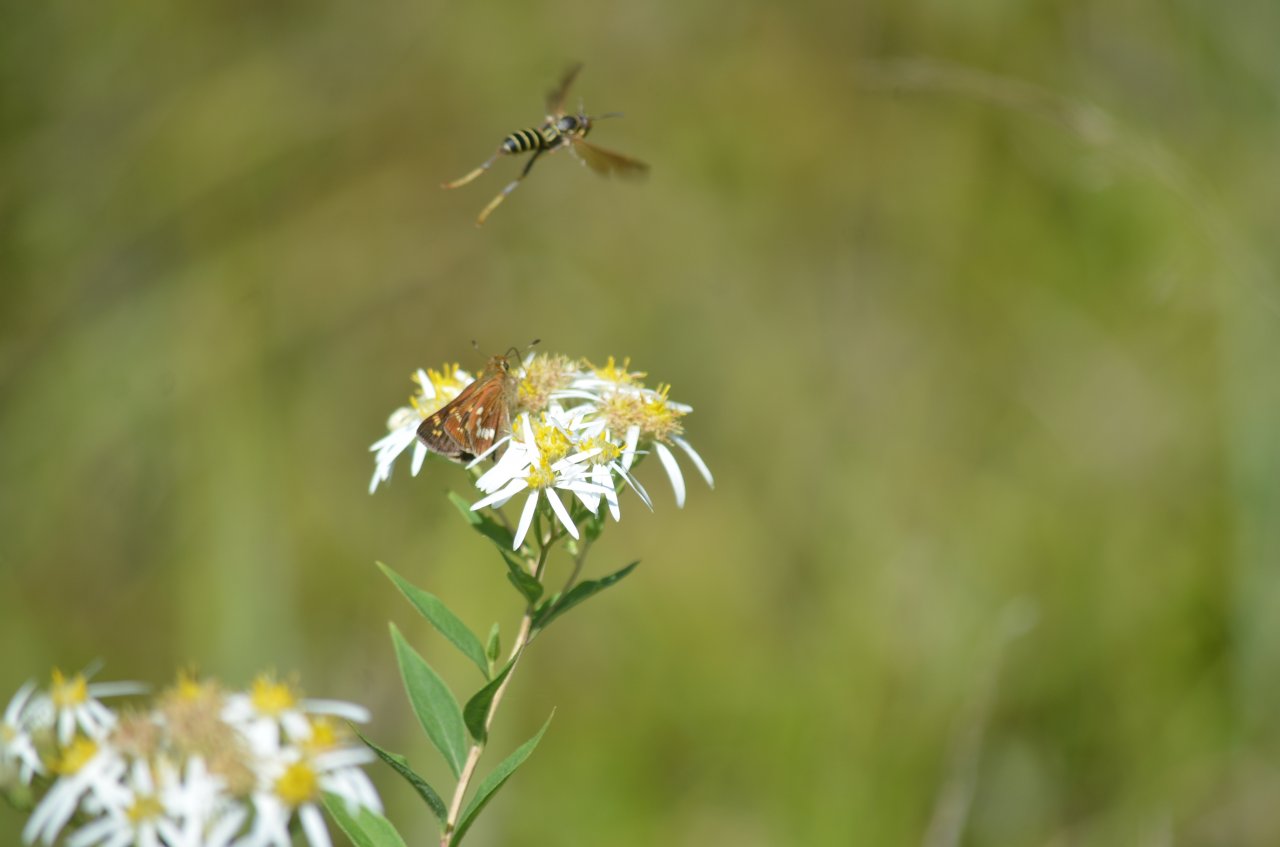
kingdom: Animalia
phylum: Arthropoda
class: Insecta
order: Lepidoptera
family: Hesperiidae
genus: Hesperia
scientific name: Hesperia leonardus
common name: Leonard's Skipper
